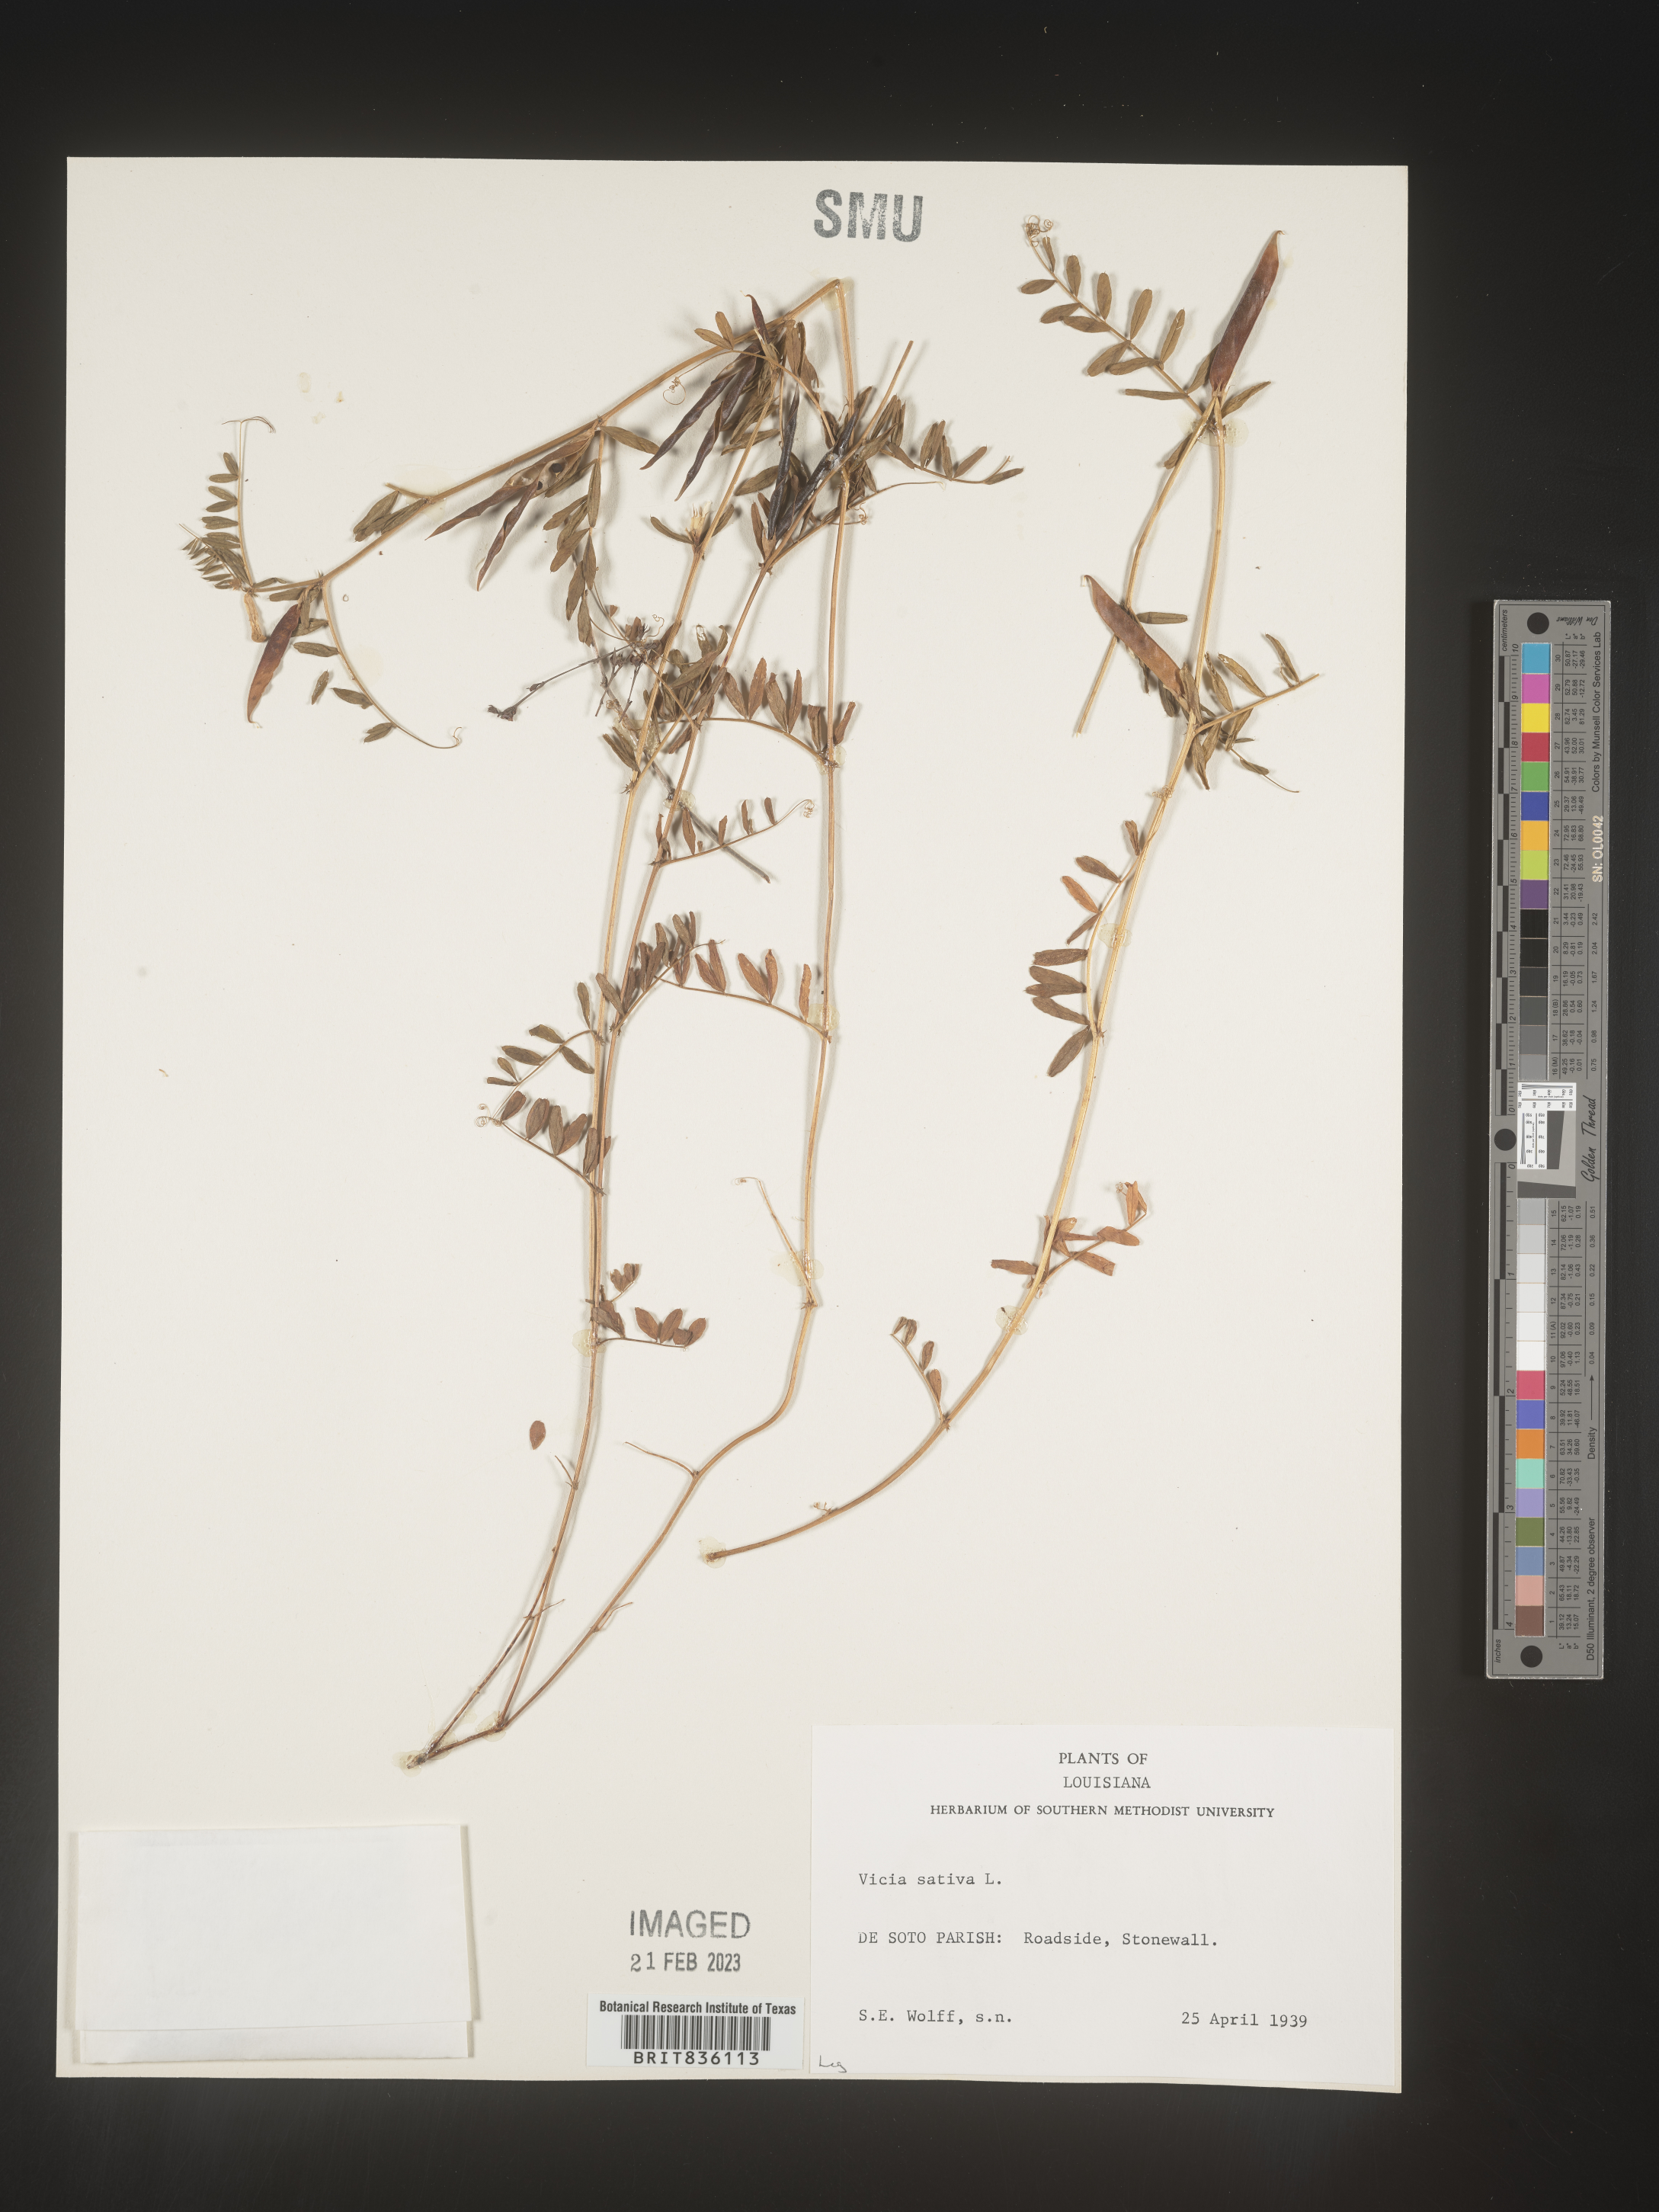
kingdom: Plantae
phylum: Tracheophyta
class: Magnoliopsida
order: Fabales
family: Fabaceae
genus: Vicia
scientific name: Vicia sativa
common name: Garden vetch
